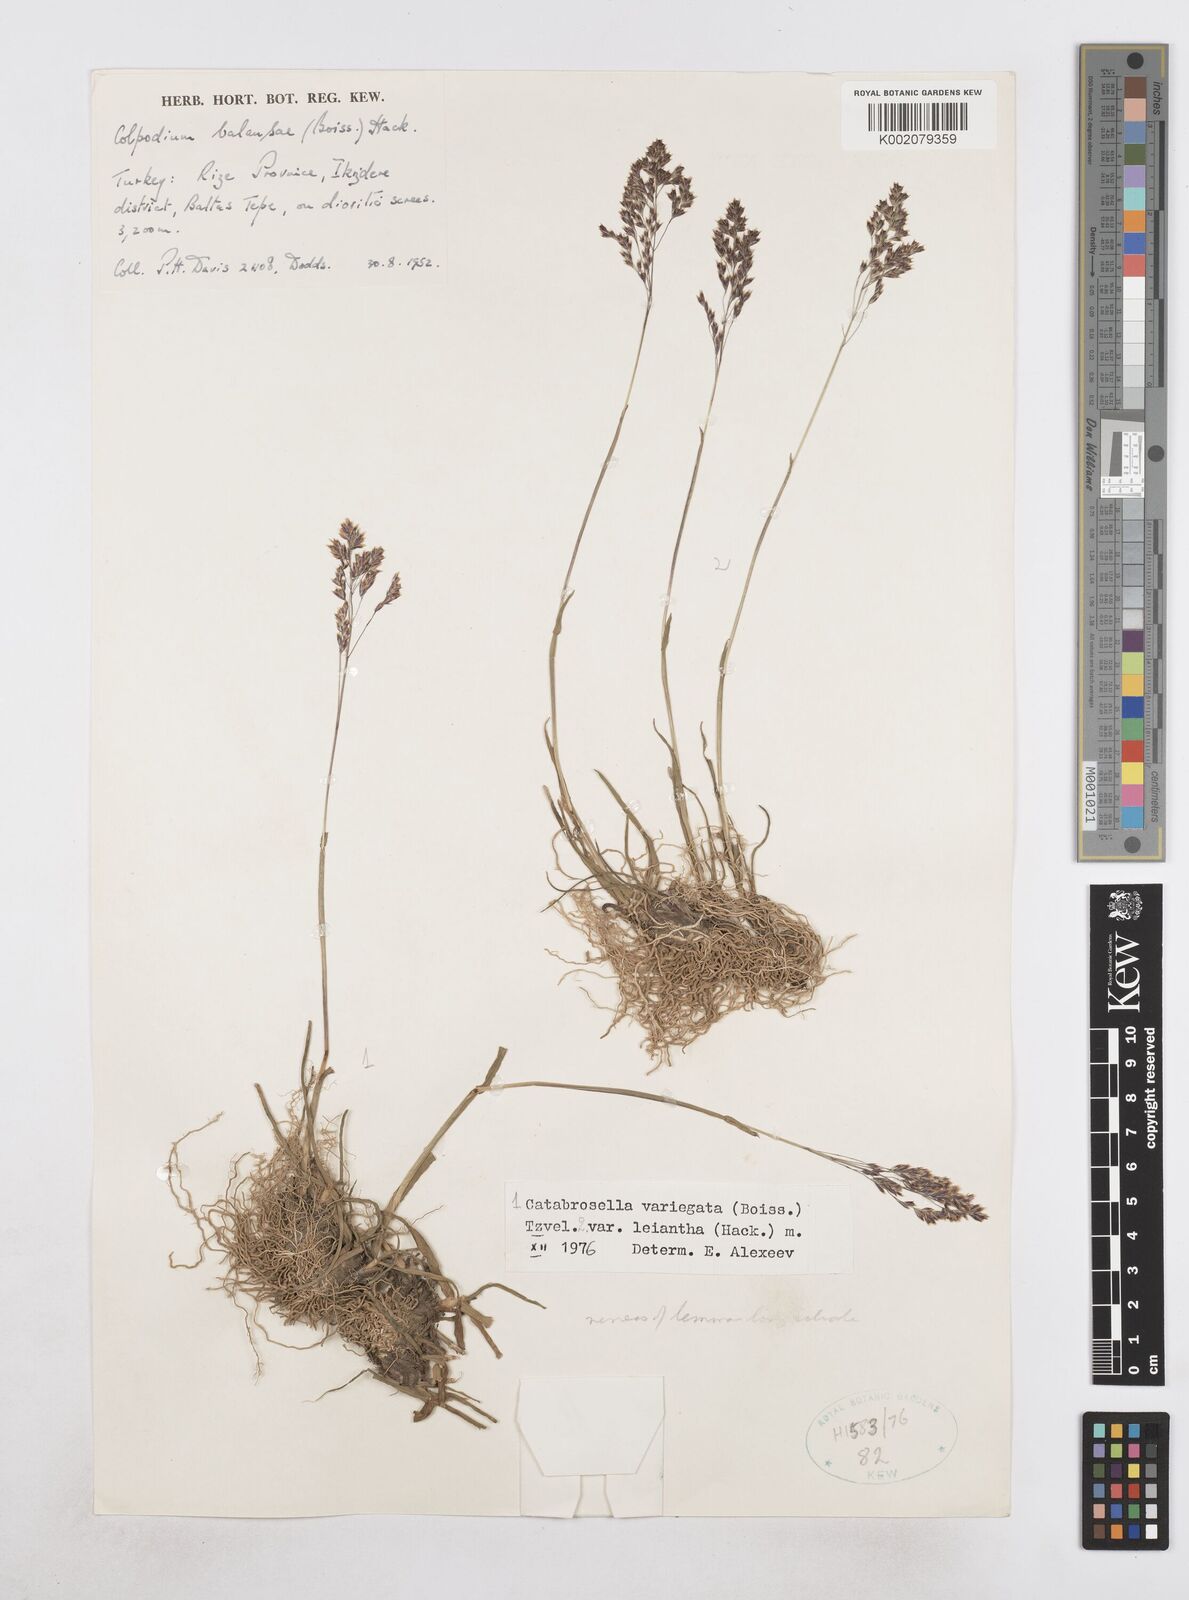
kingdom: Plantae
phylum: Tracheophyta
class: Liliopsida
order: Poales
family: Poaceae
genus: Catabrosella
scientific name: Catabrosella variegata
